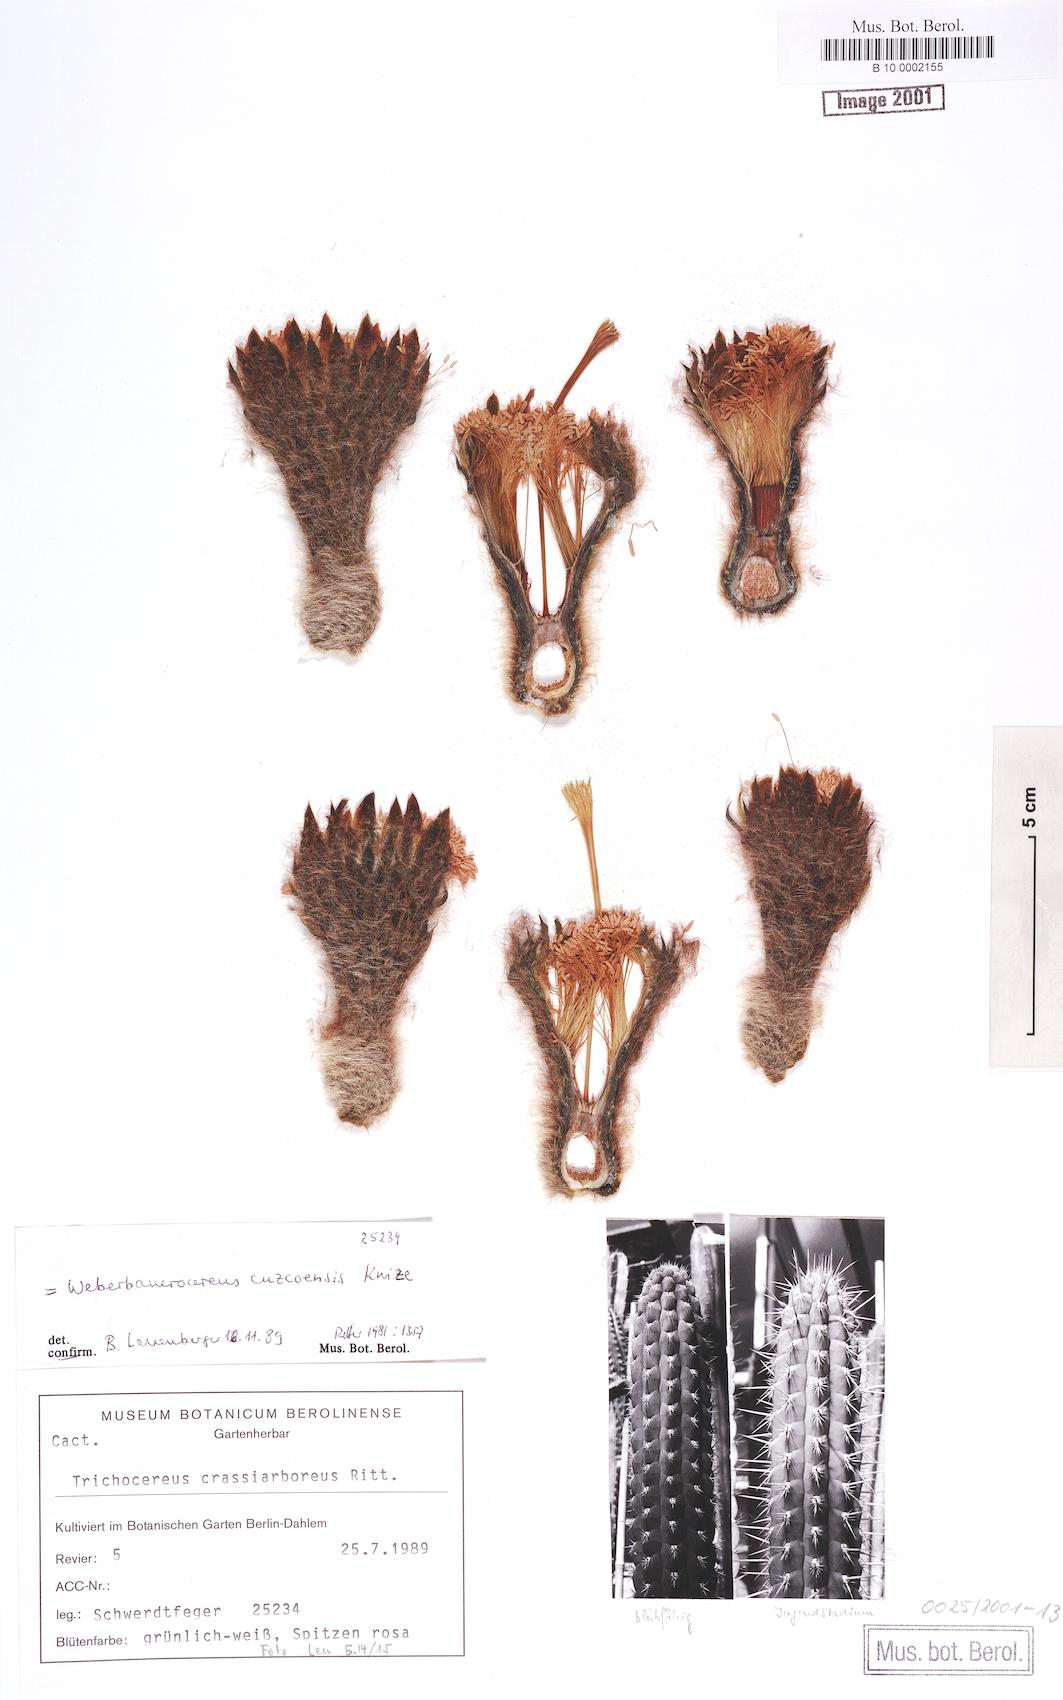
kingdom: Plantae
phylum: Tracheophyta
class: Magnoliopsida
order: Caryophyllales
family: Cactaceae
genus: Weberbauerocereus
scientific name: Weberbauerocereus cuzcoensis
